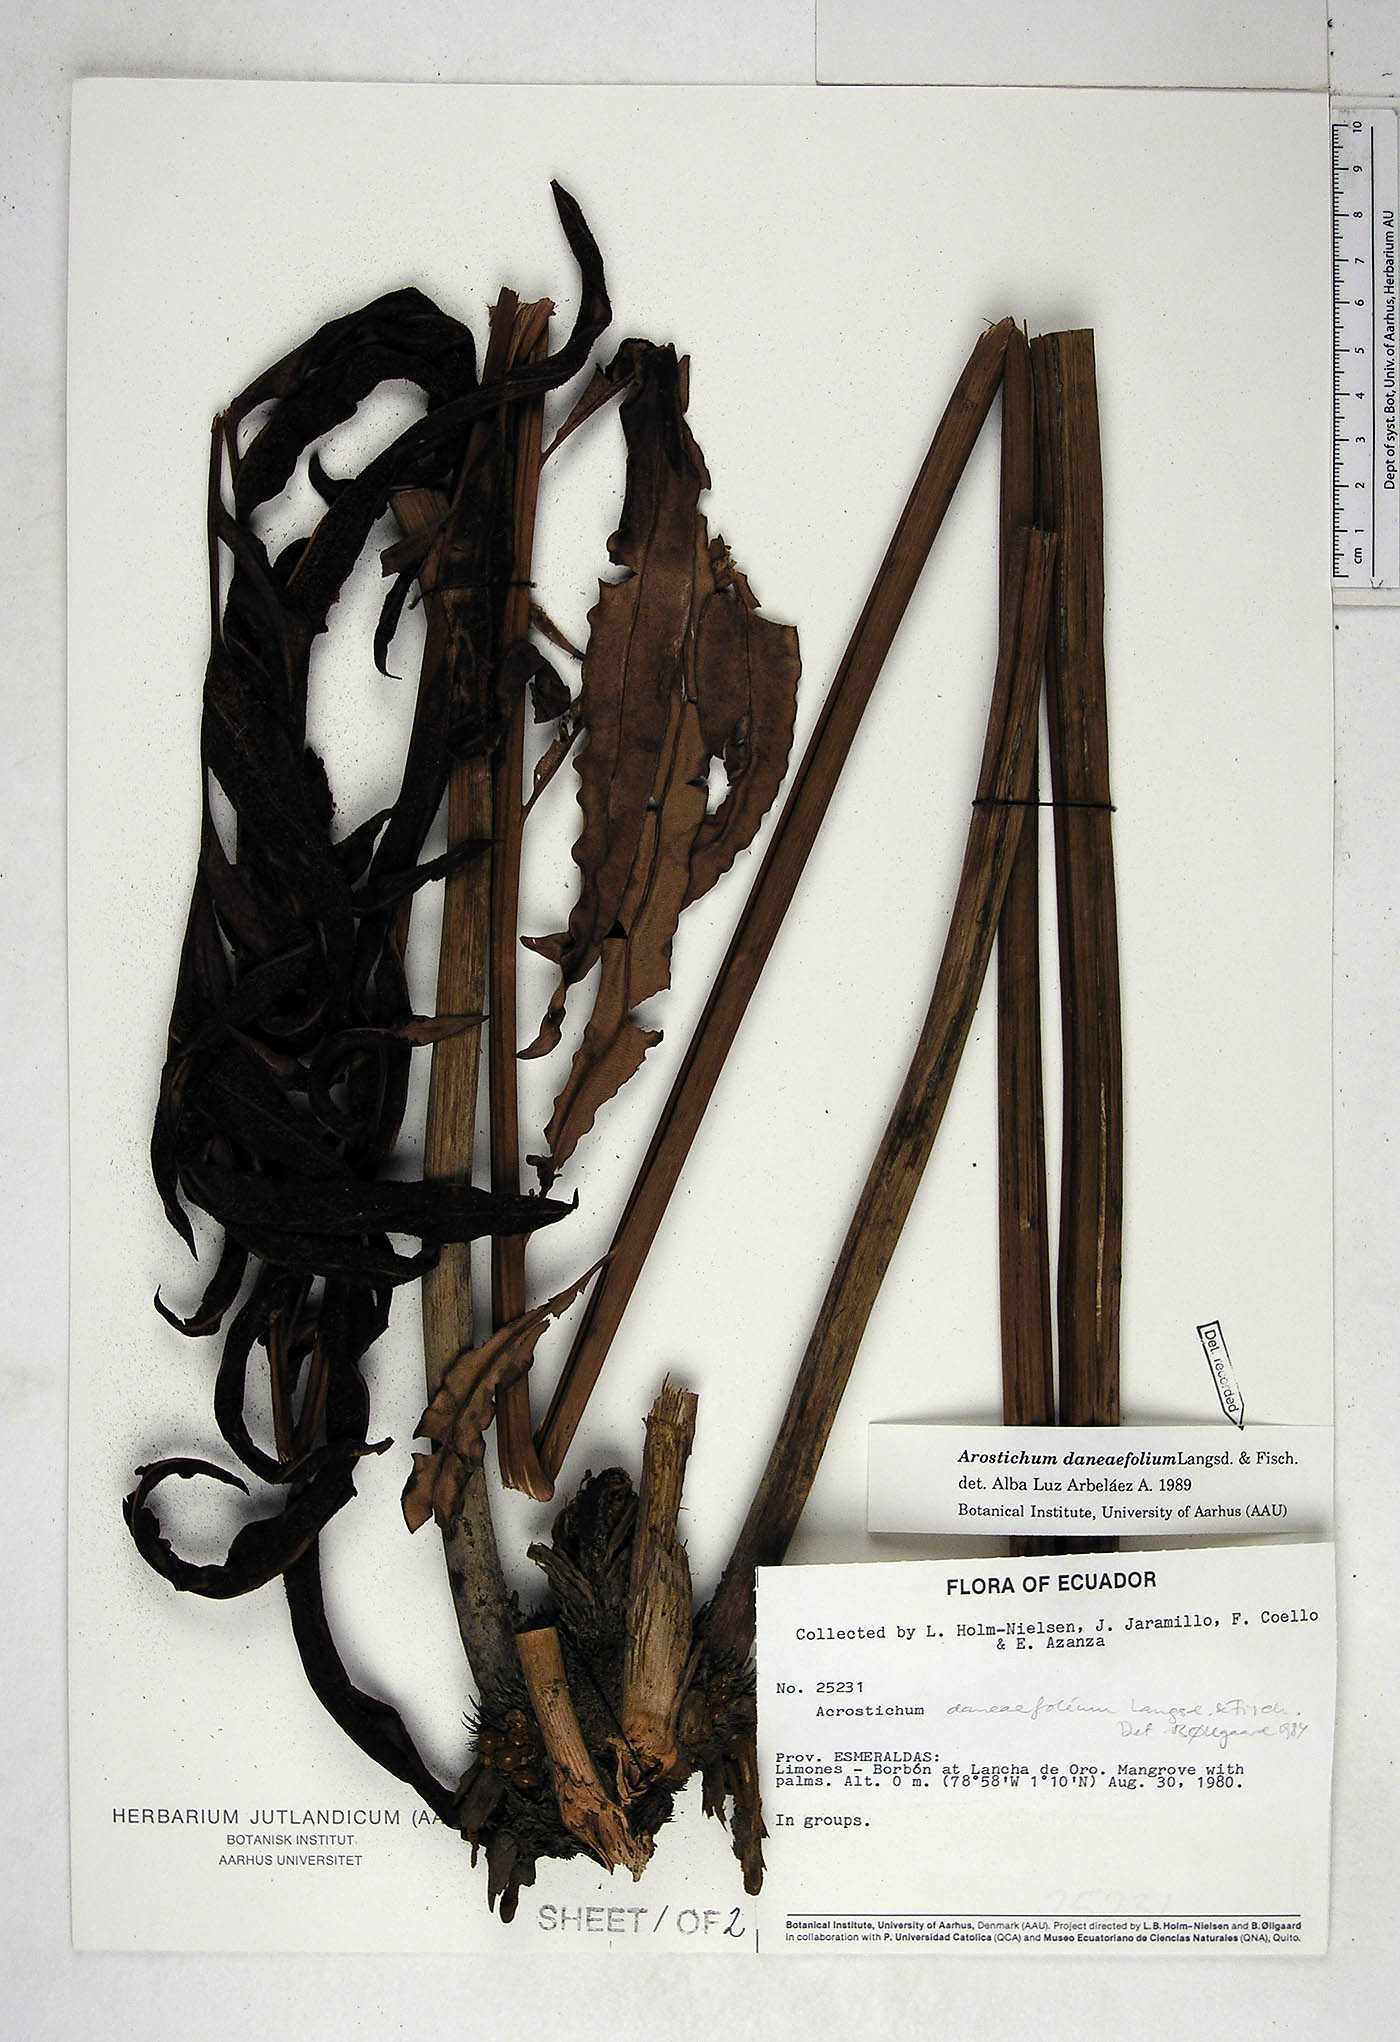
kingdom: Plantae
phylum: Tracheophyta
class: Polypodiopsida
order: Polypodiales
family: Pteridaceae
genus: Acrostichum
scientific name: Acrostichum daneaefolium
